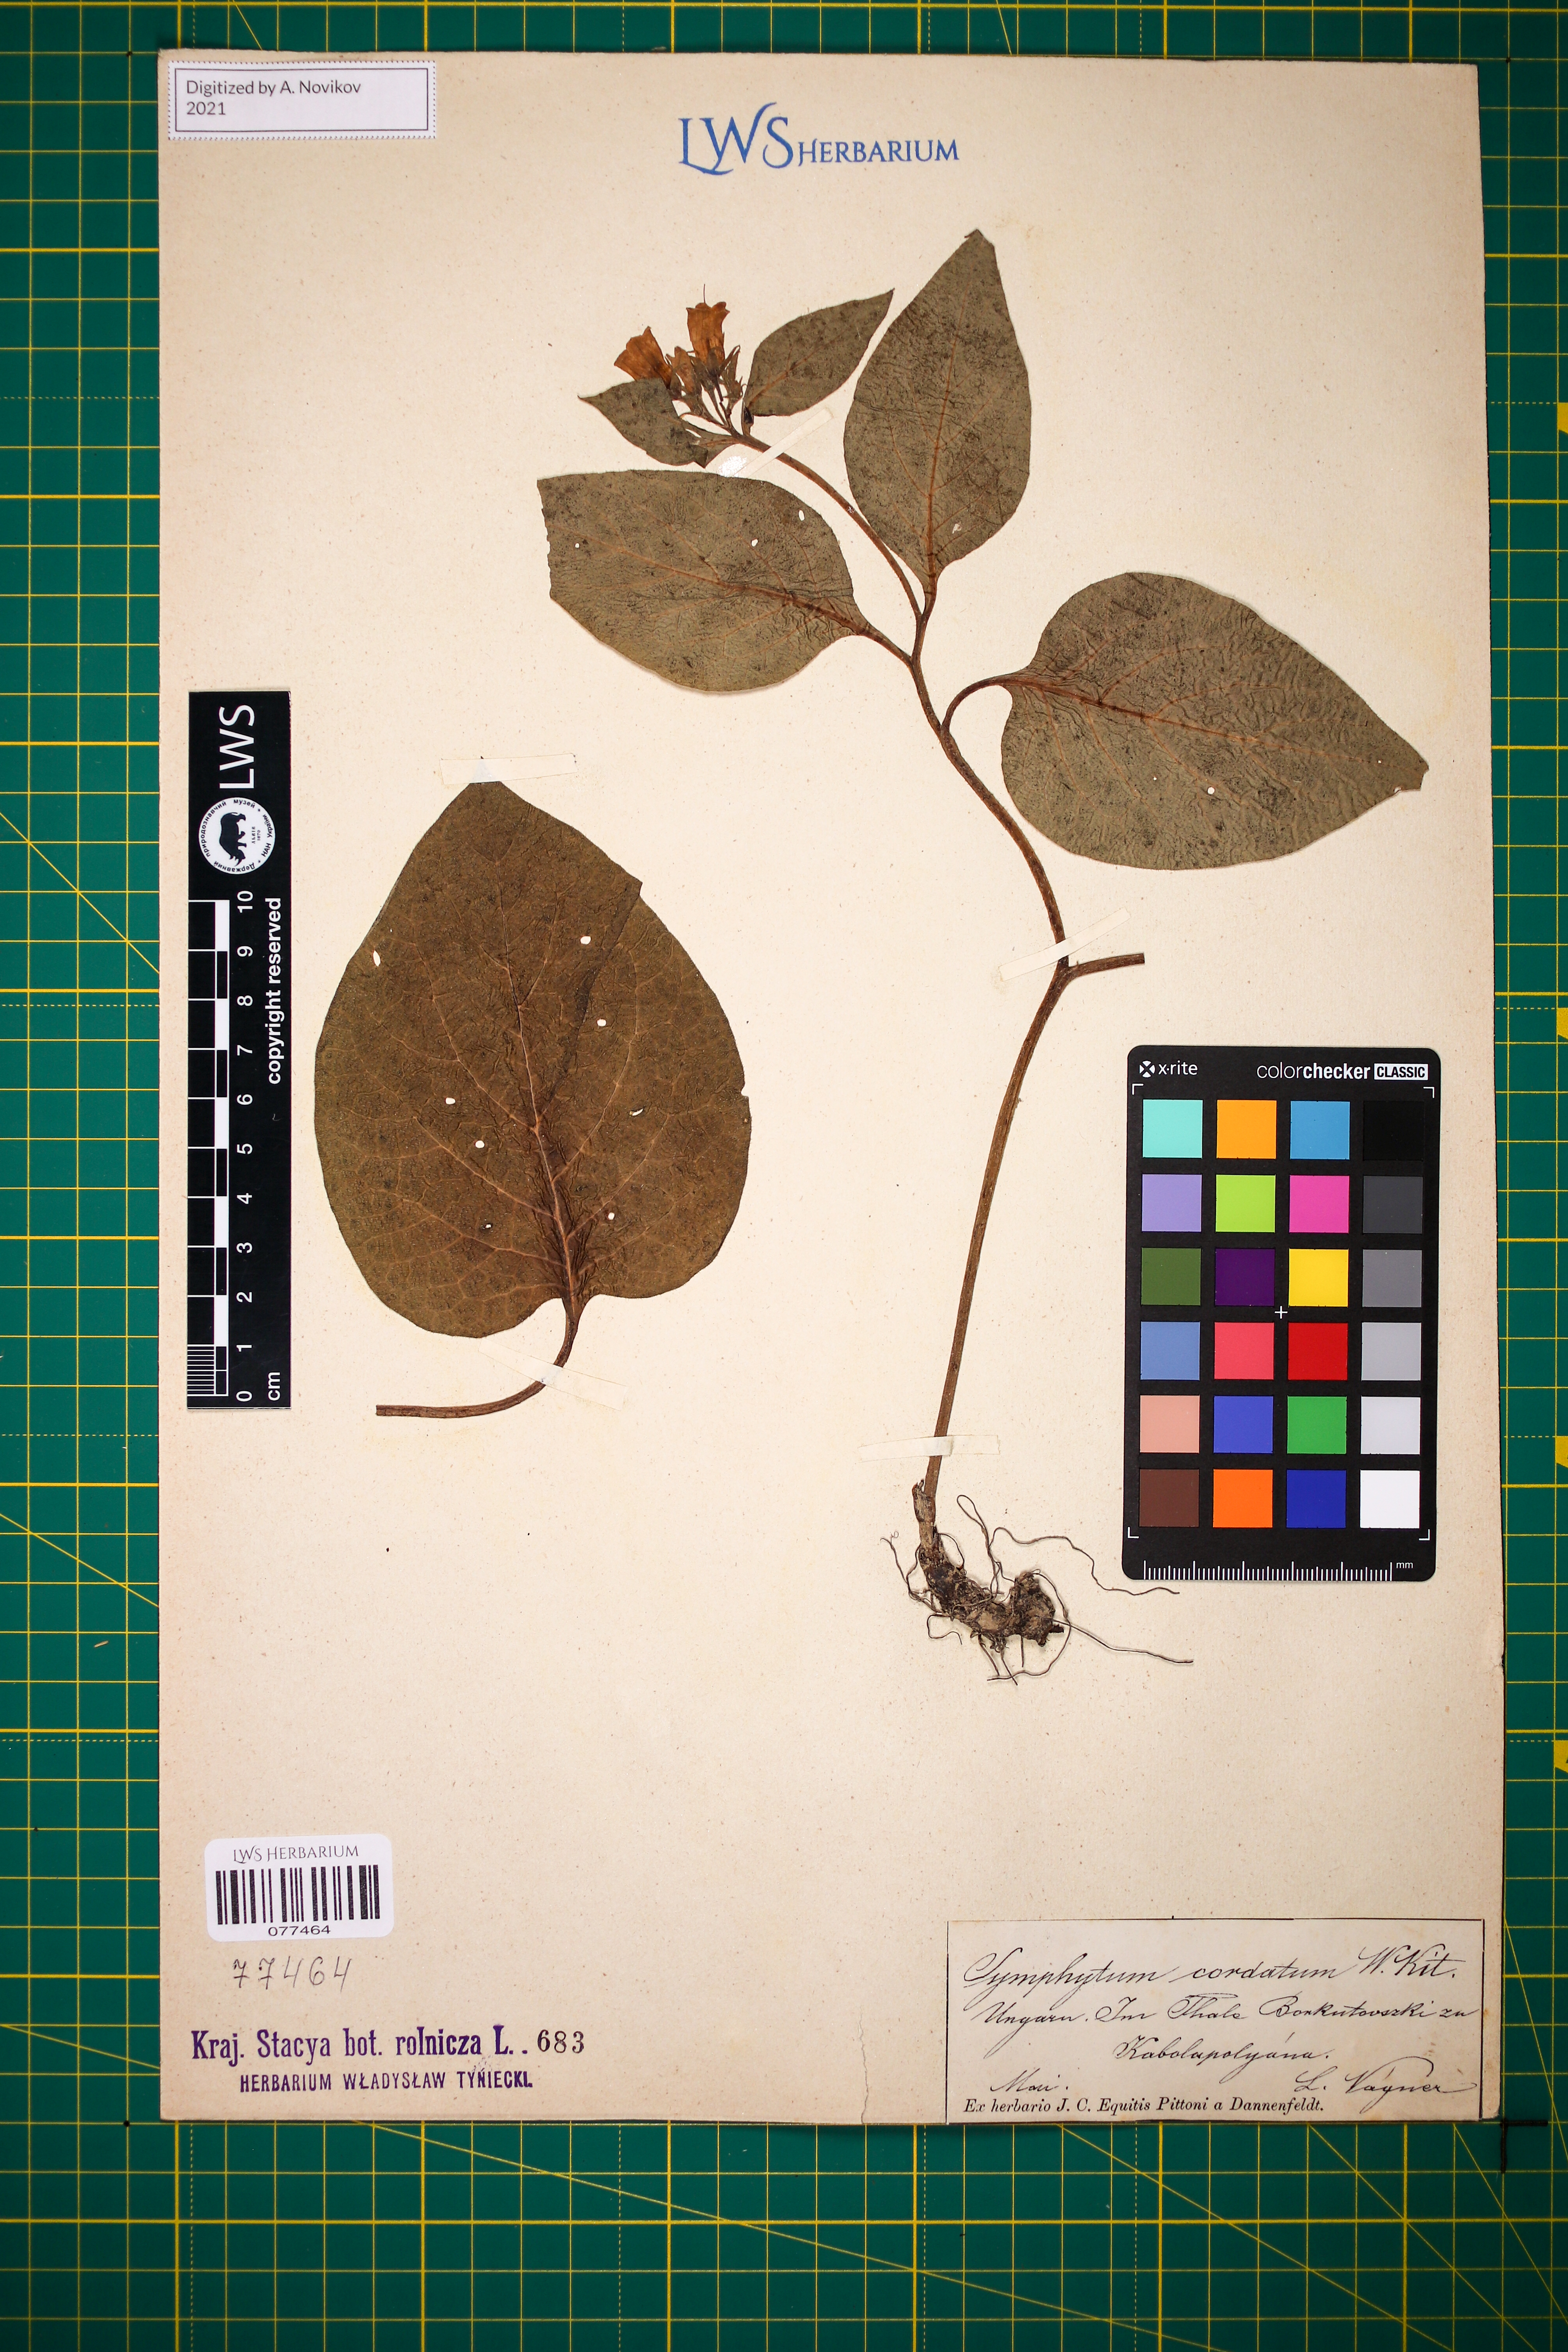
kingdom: Plantae
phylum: Tracheophyta
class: Magnoliopsida
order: Boraginales
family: Boraginaceae
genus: Symphytum
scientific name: Symphytum cordatum
